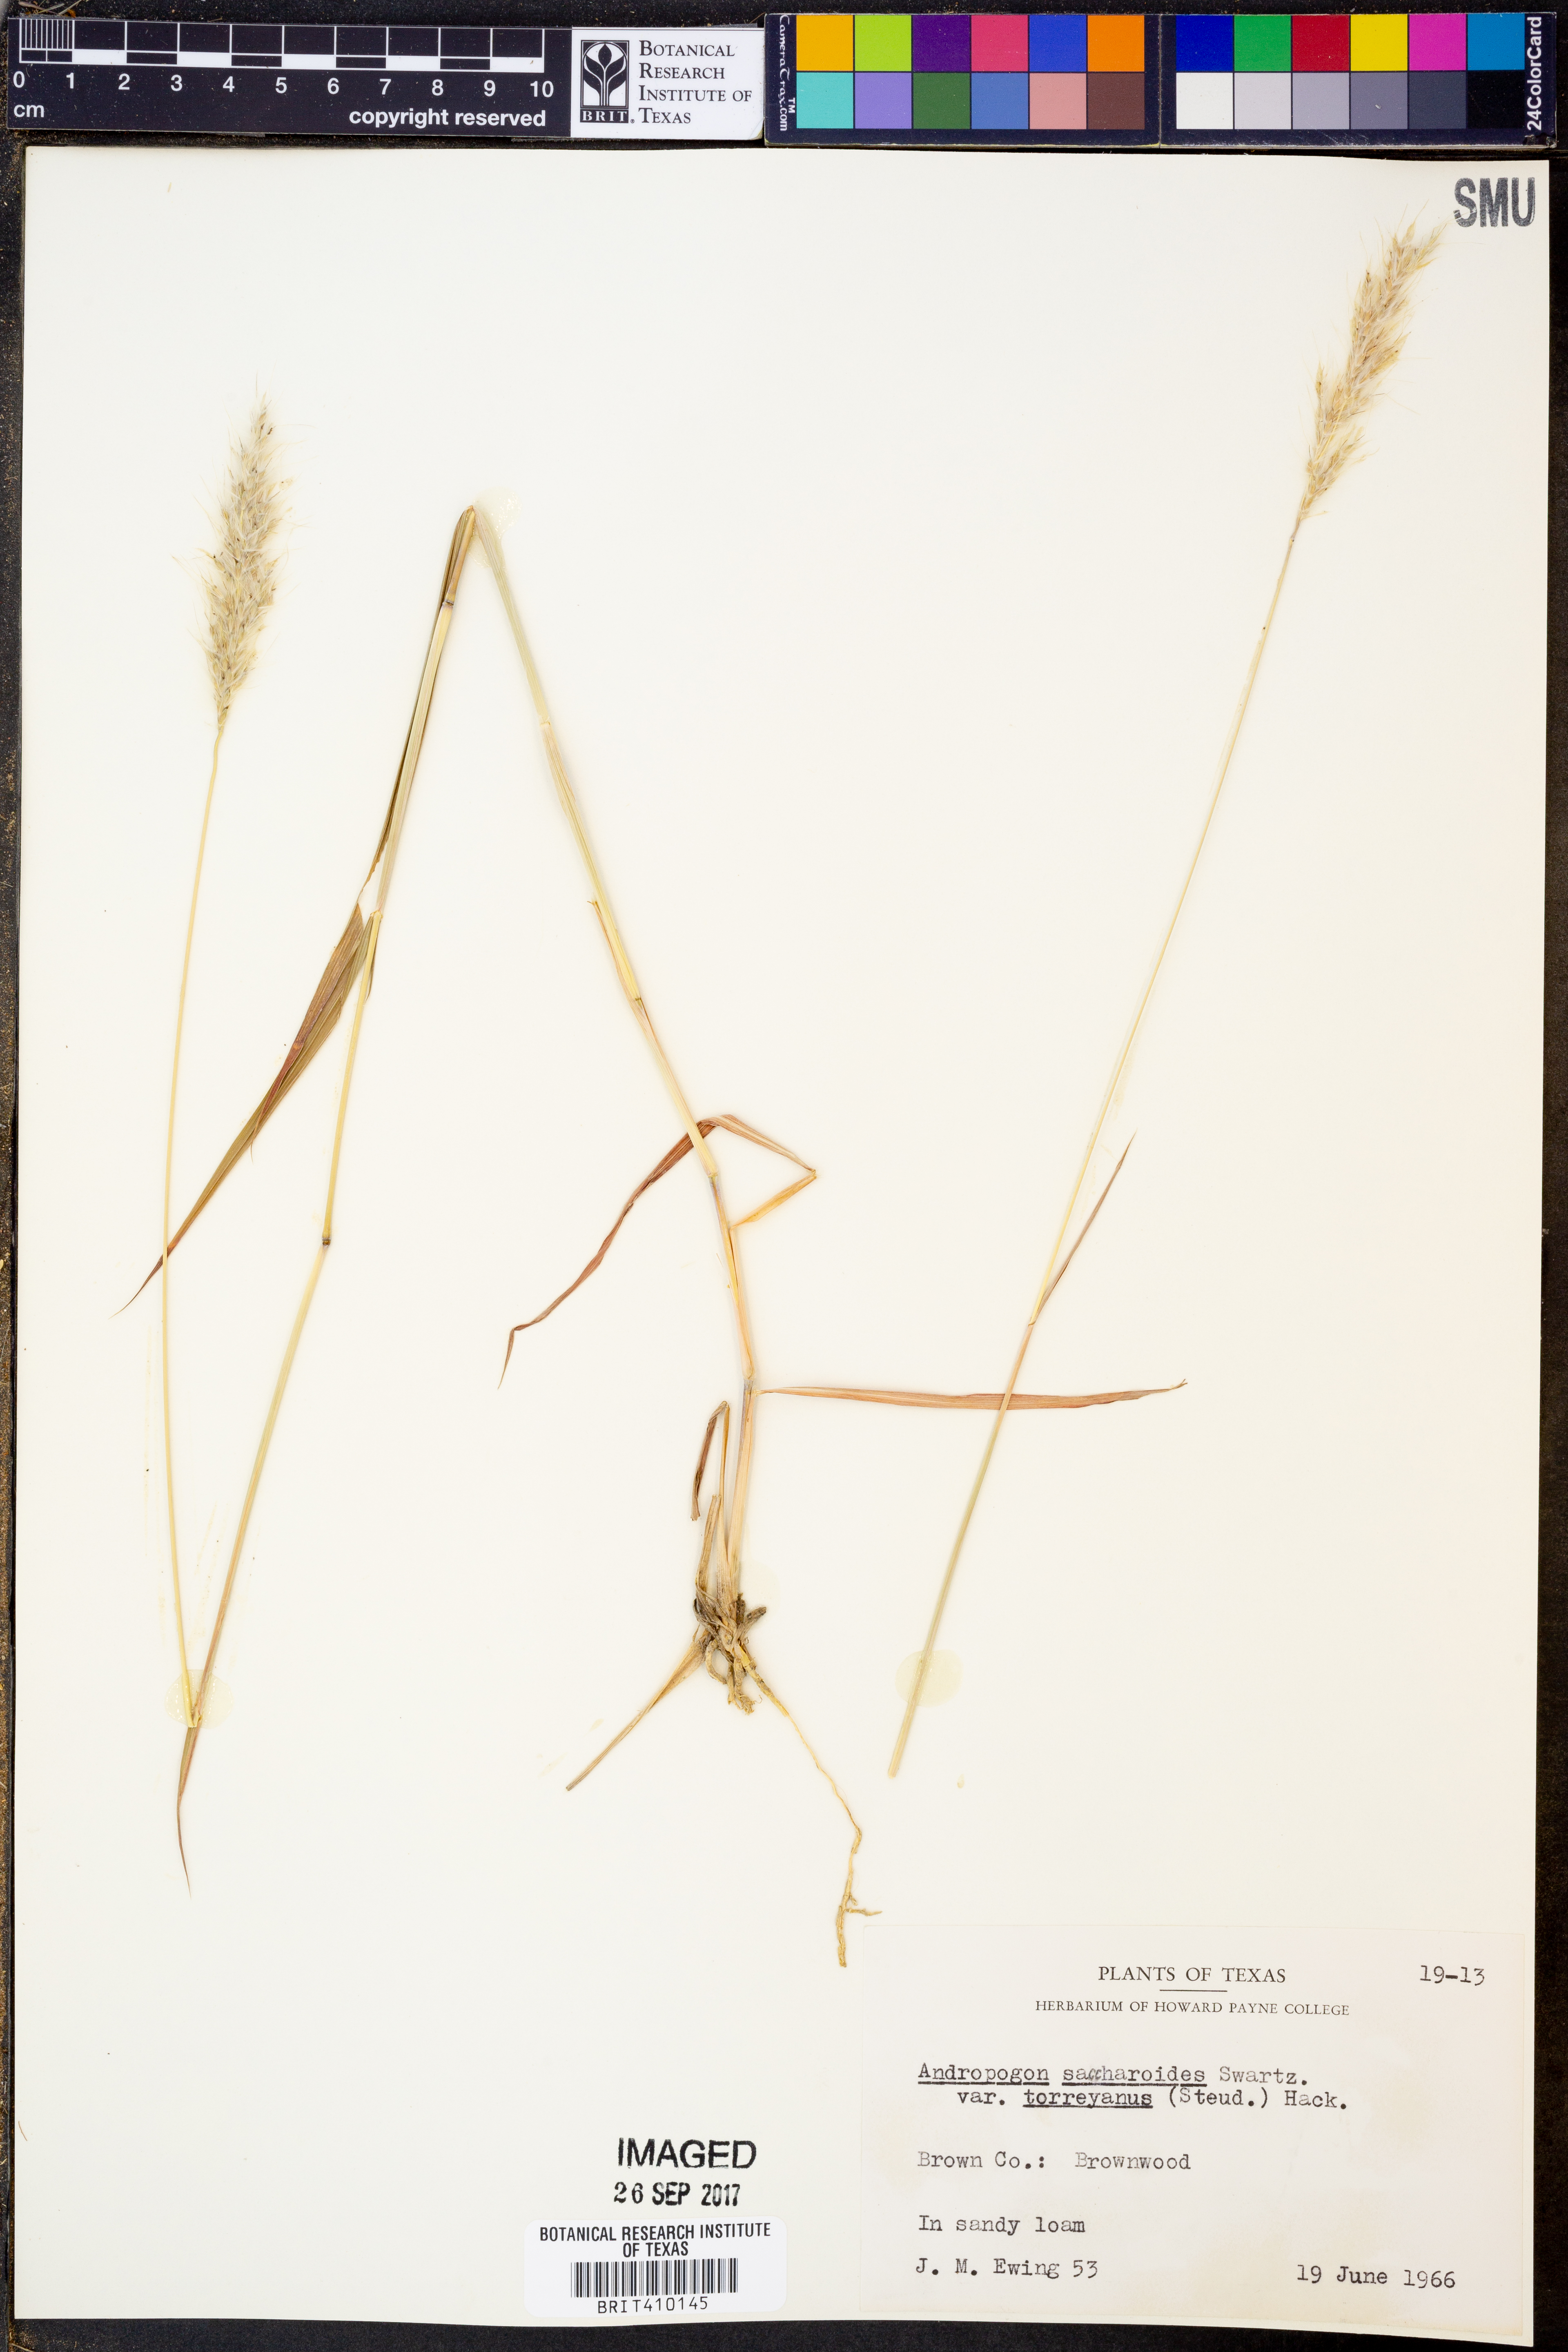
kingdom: Plantae
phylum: Tracheophyta
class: Liliopsida
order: Poales
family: Poaceae
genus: Bothriochloa
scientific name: Bothriochloa torreyana
